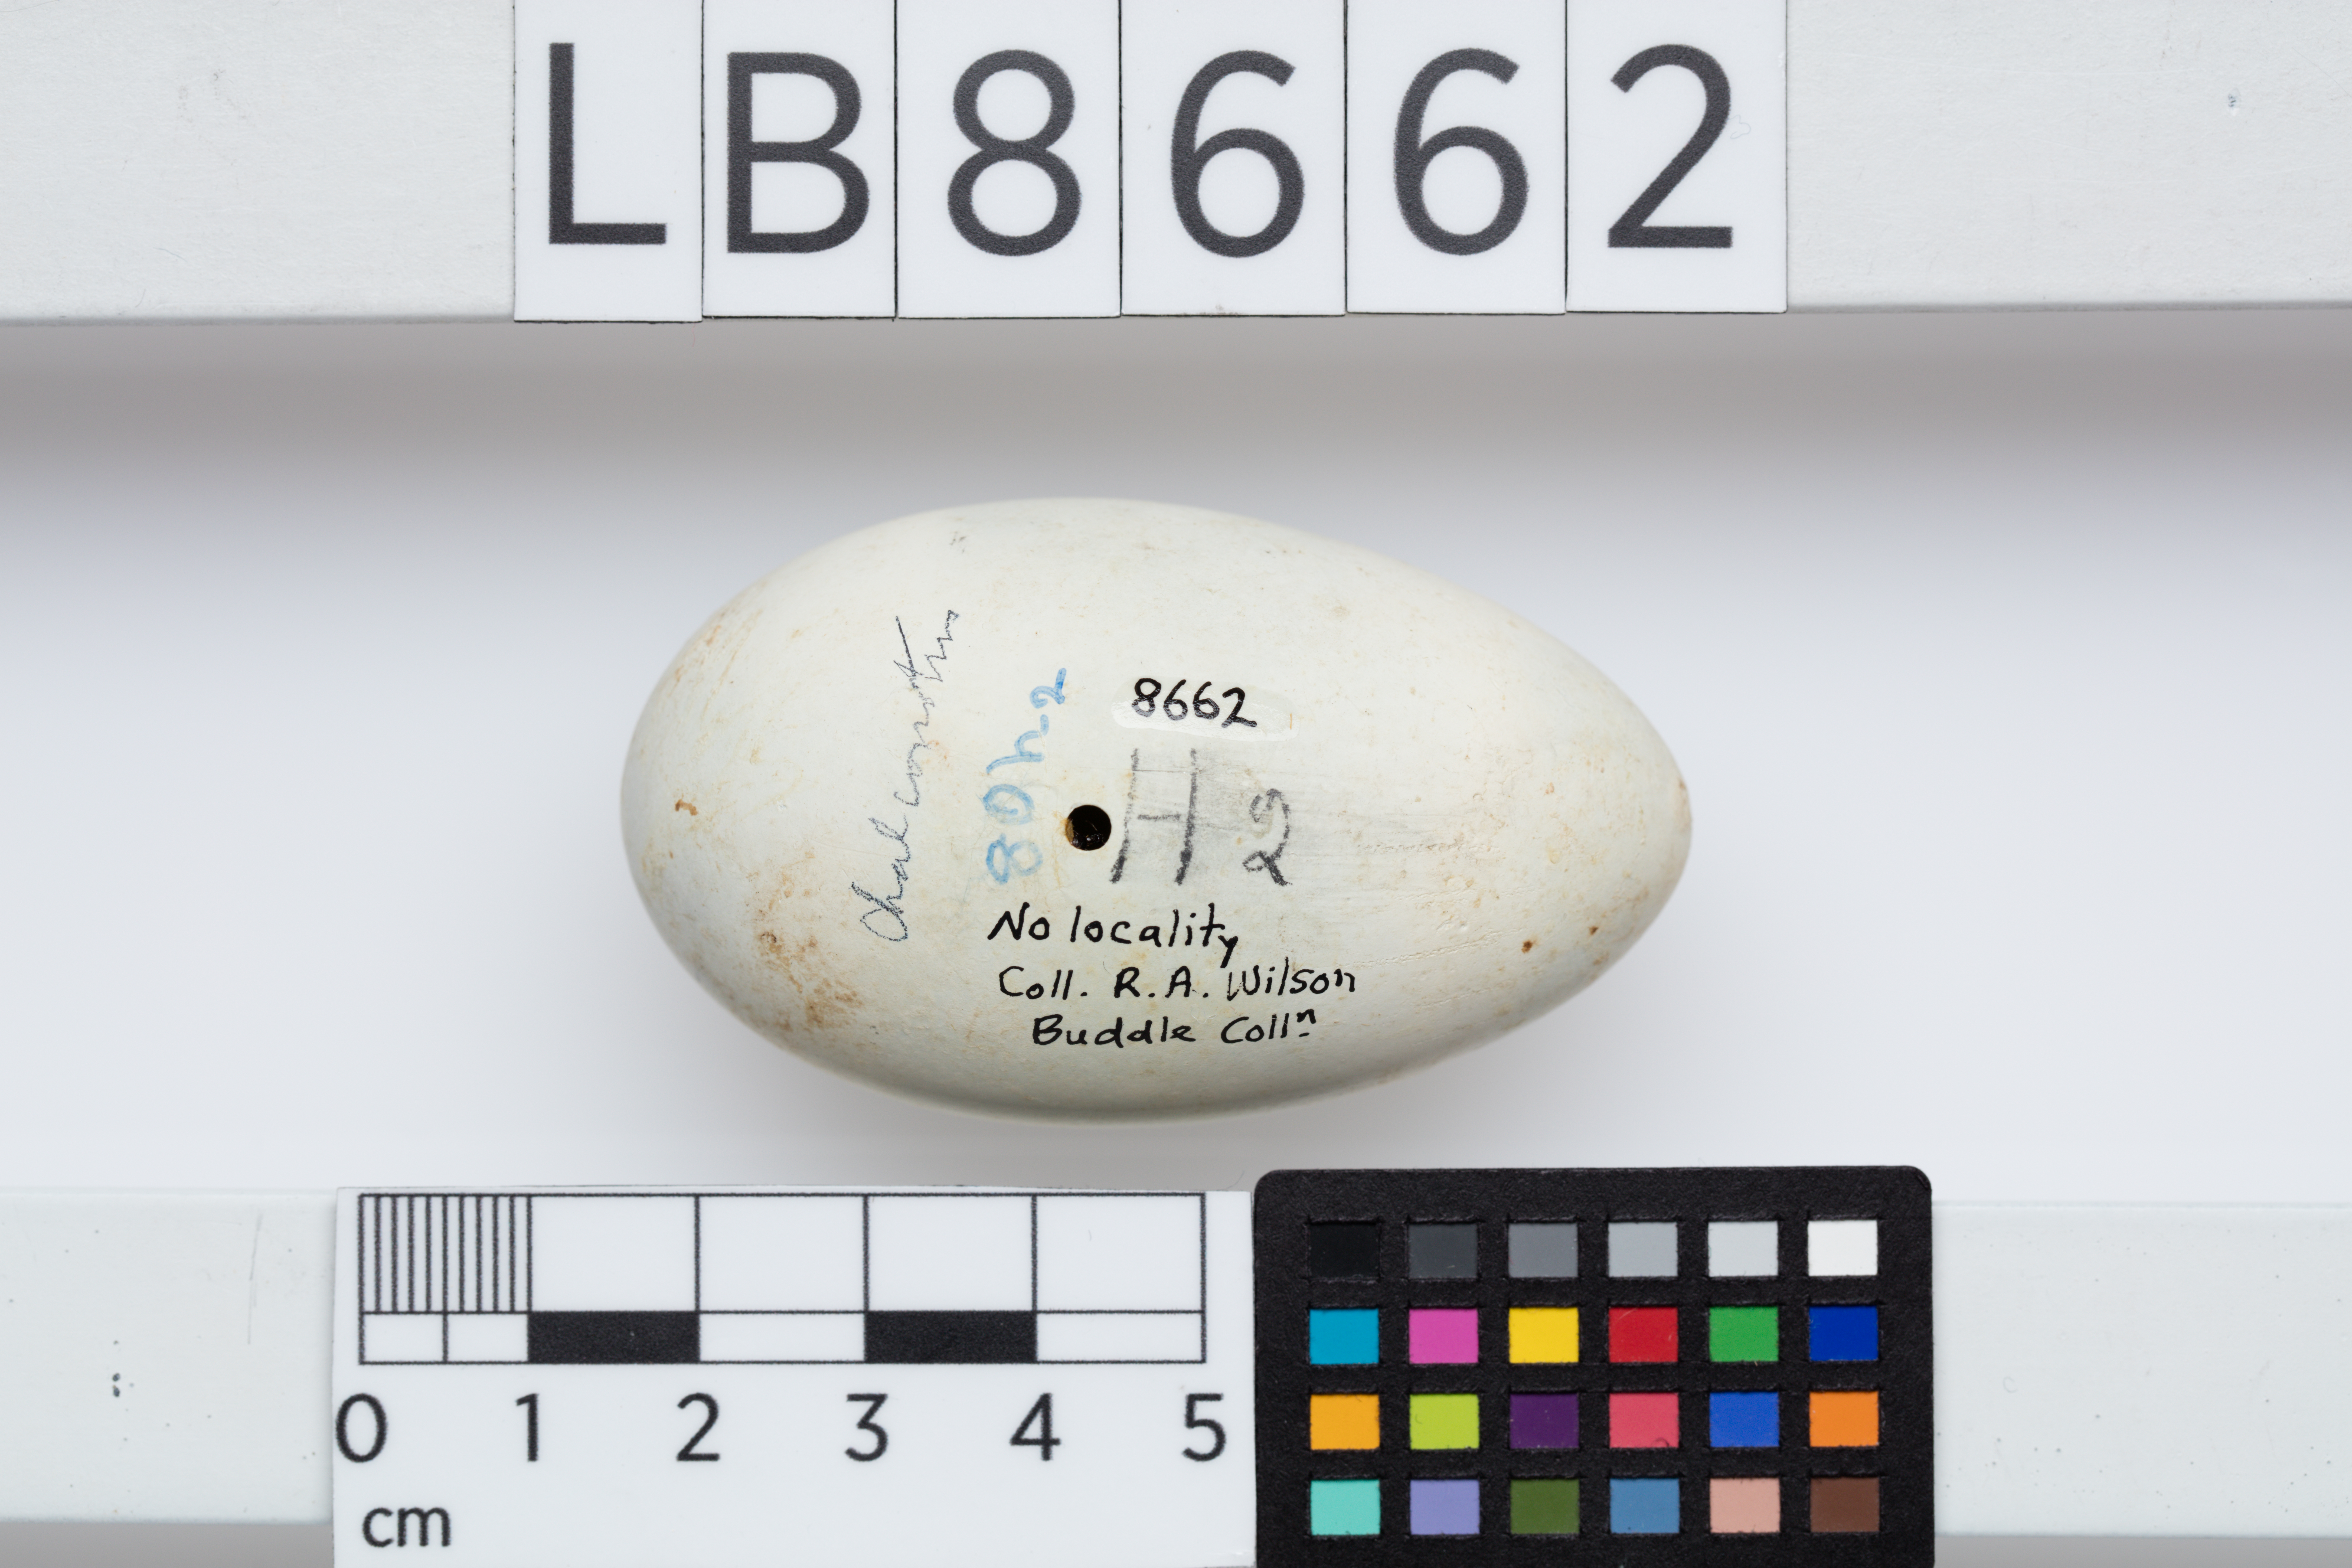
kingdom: Animalia
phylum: Chordata
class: Aves
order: Suliformes
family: Phalacrocoracidae
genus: Leucocarbo
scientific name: Leucocarbo chalconotus
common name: Stewart shag
